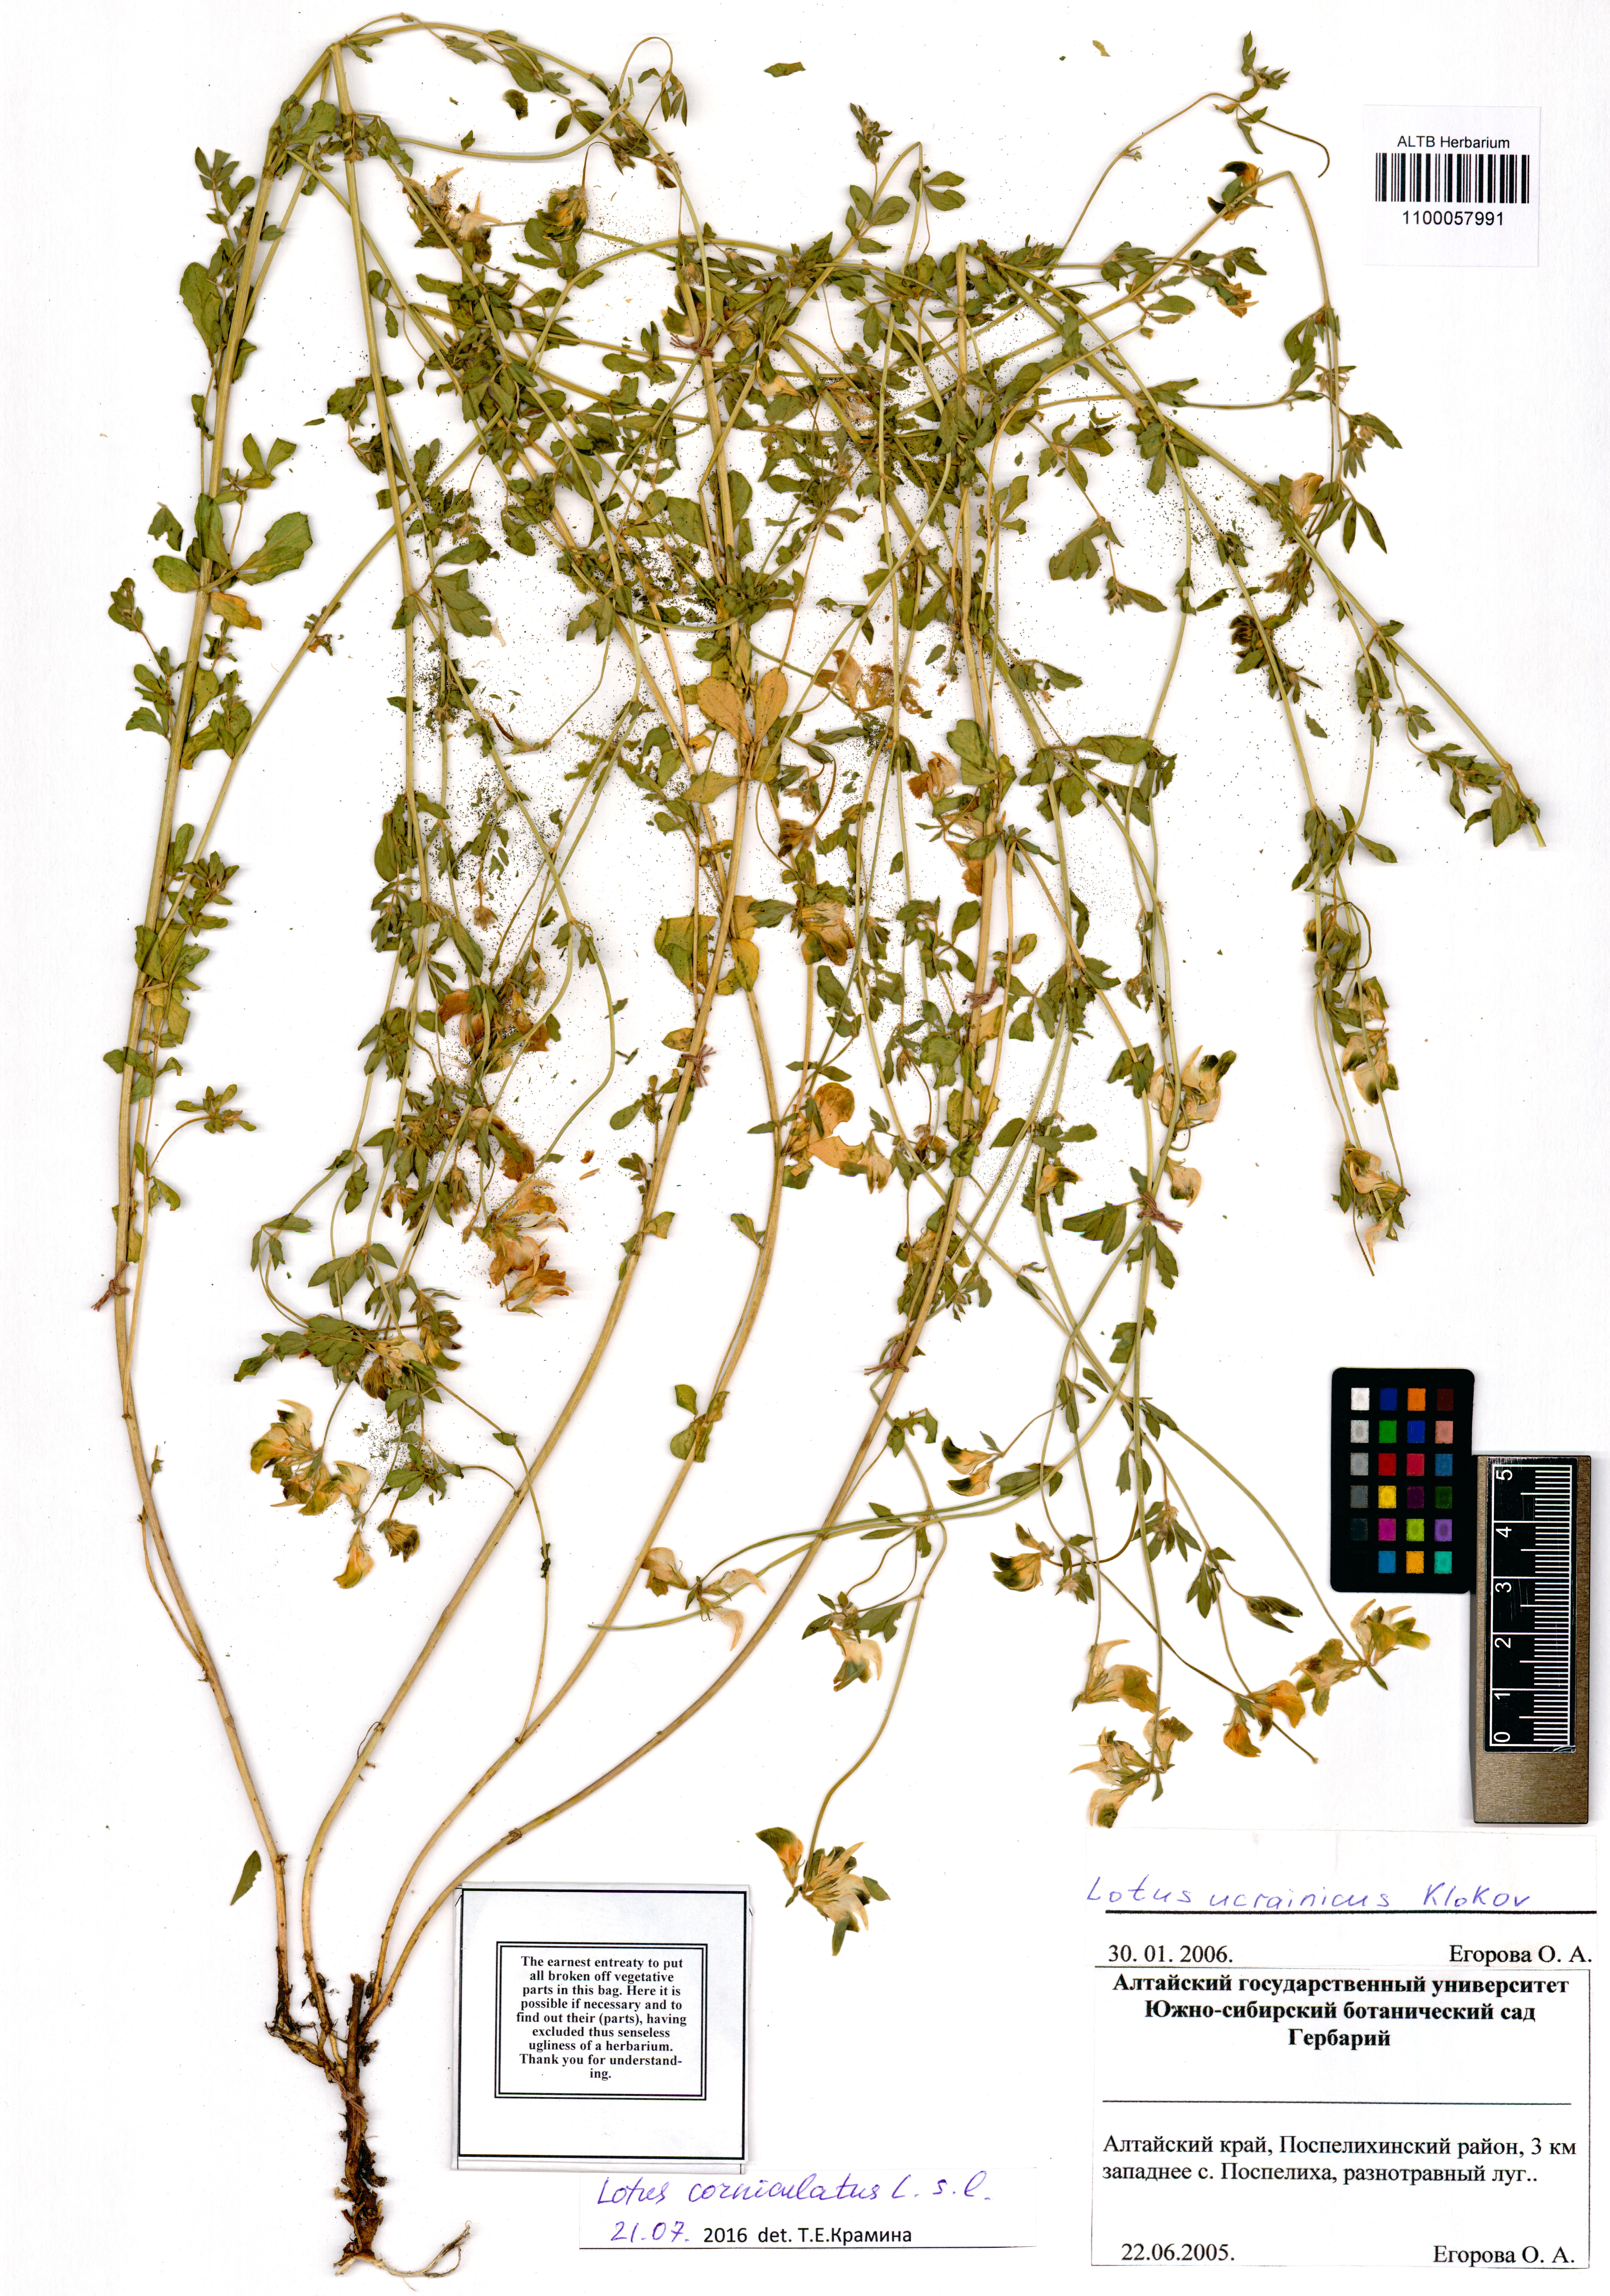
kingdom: Plantae
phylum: Tracheophyta
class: Magnoliopsida
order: Fabales
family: Fabaceae
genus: Lotus
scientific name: Lotus corniculatus
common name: Common bird's-foot-trefoil
